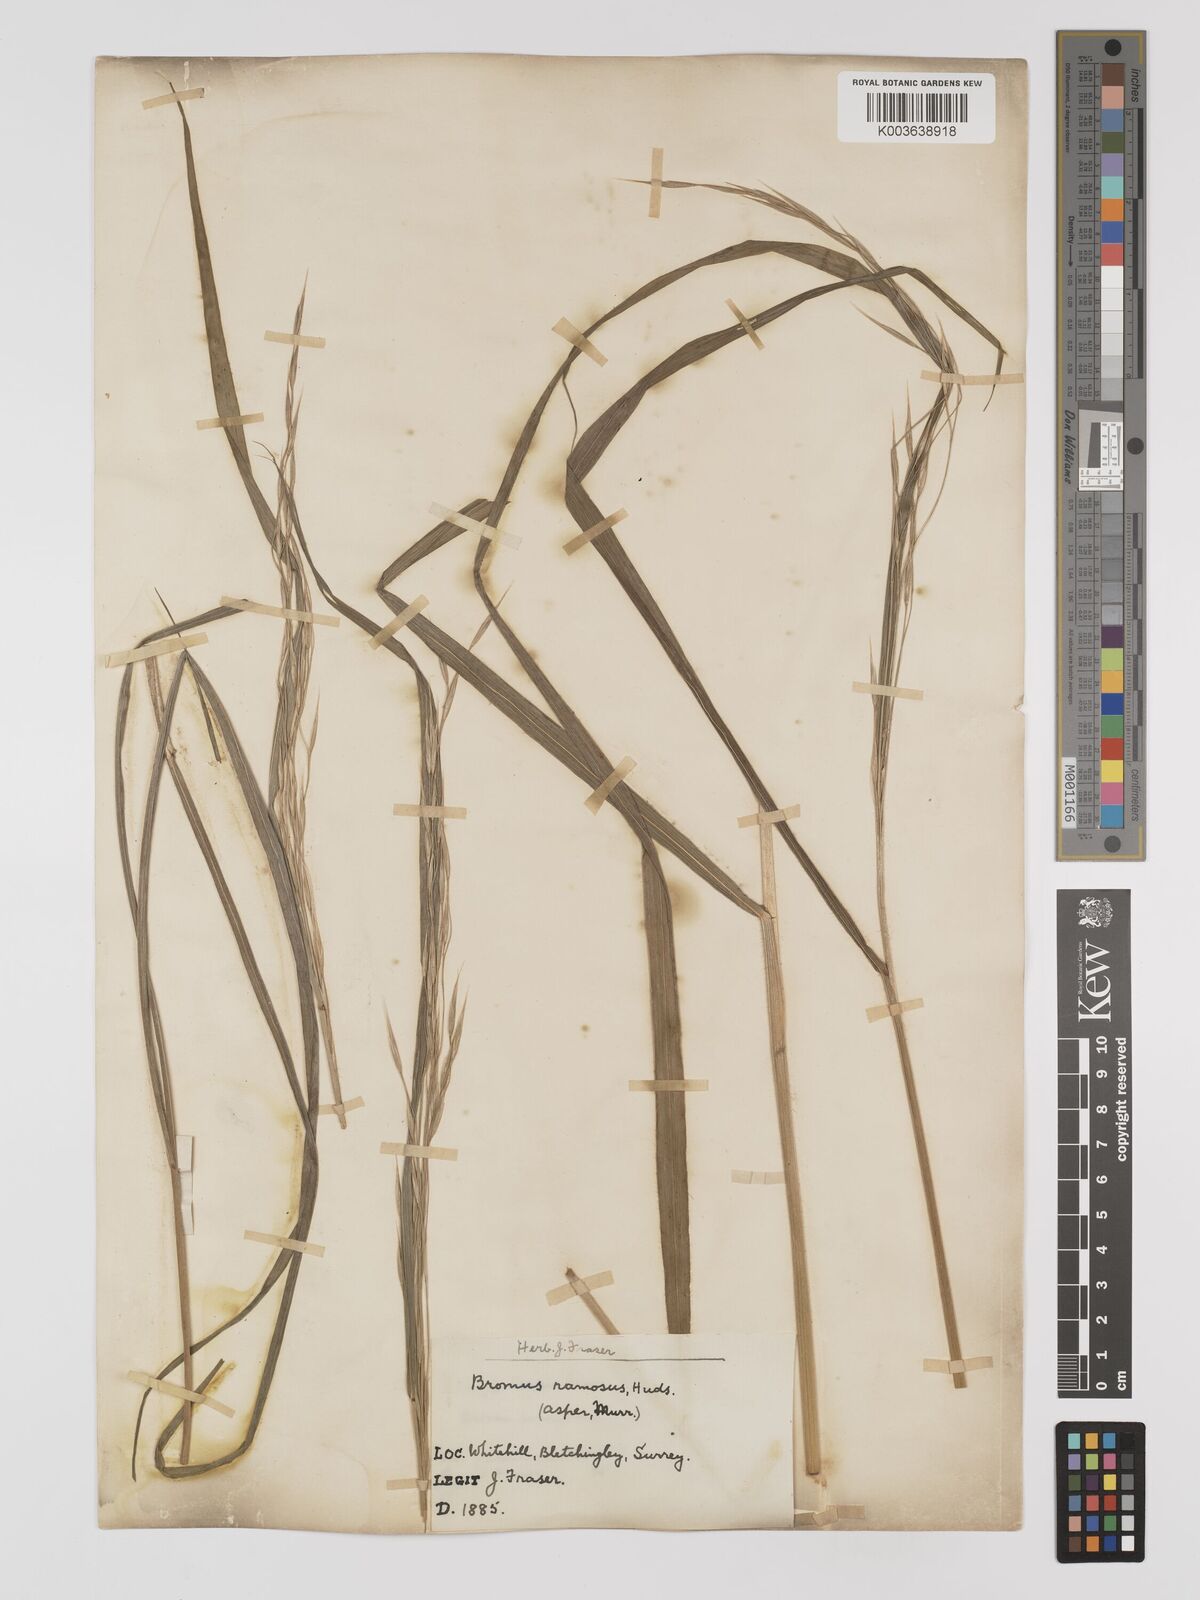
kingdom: Plantae
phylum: Tracheophyta
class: Liliopsida
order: Poales
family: Poaceae
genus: Bromus
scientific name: Bromus ramosus
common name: Hairy brome
